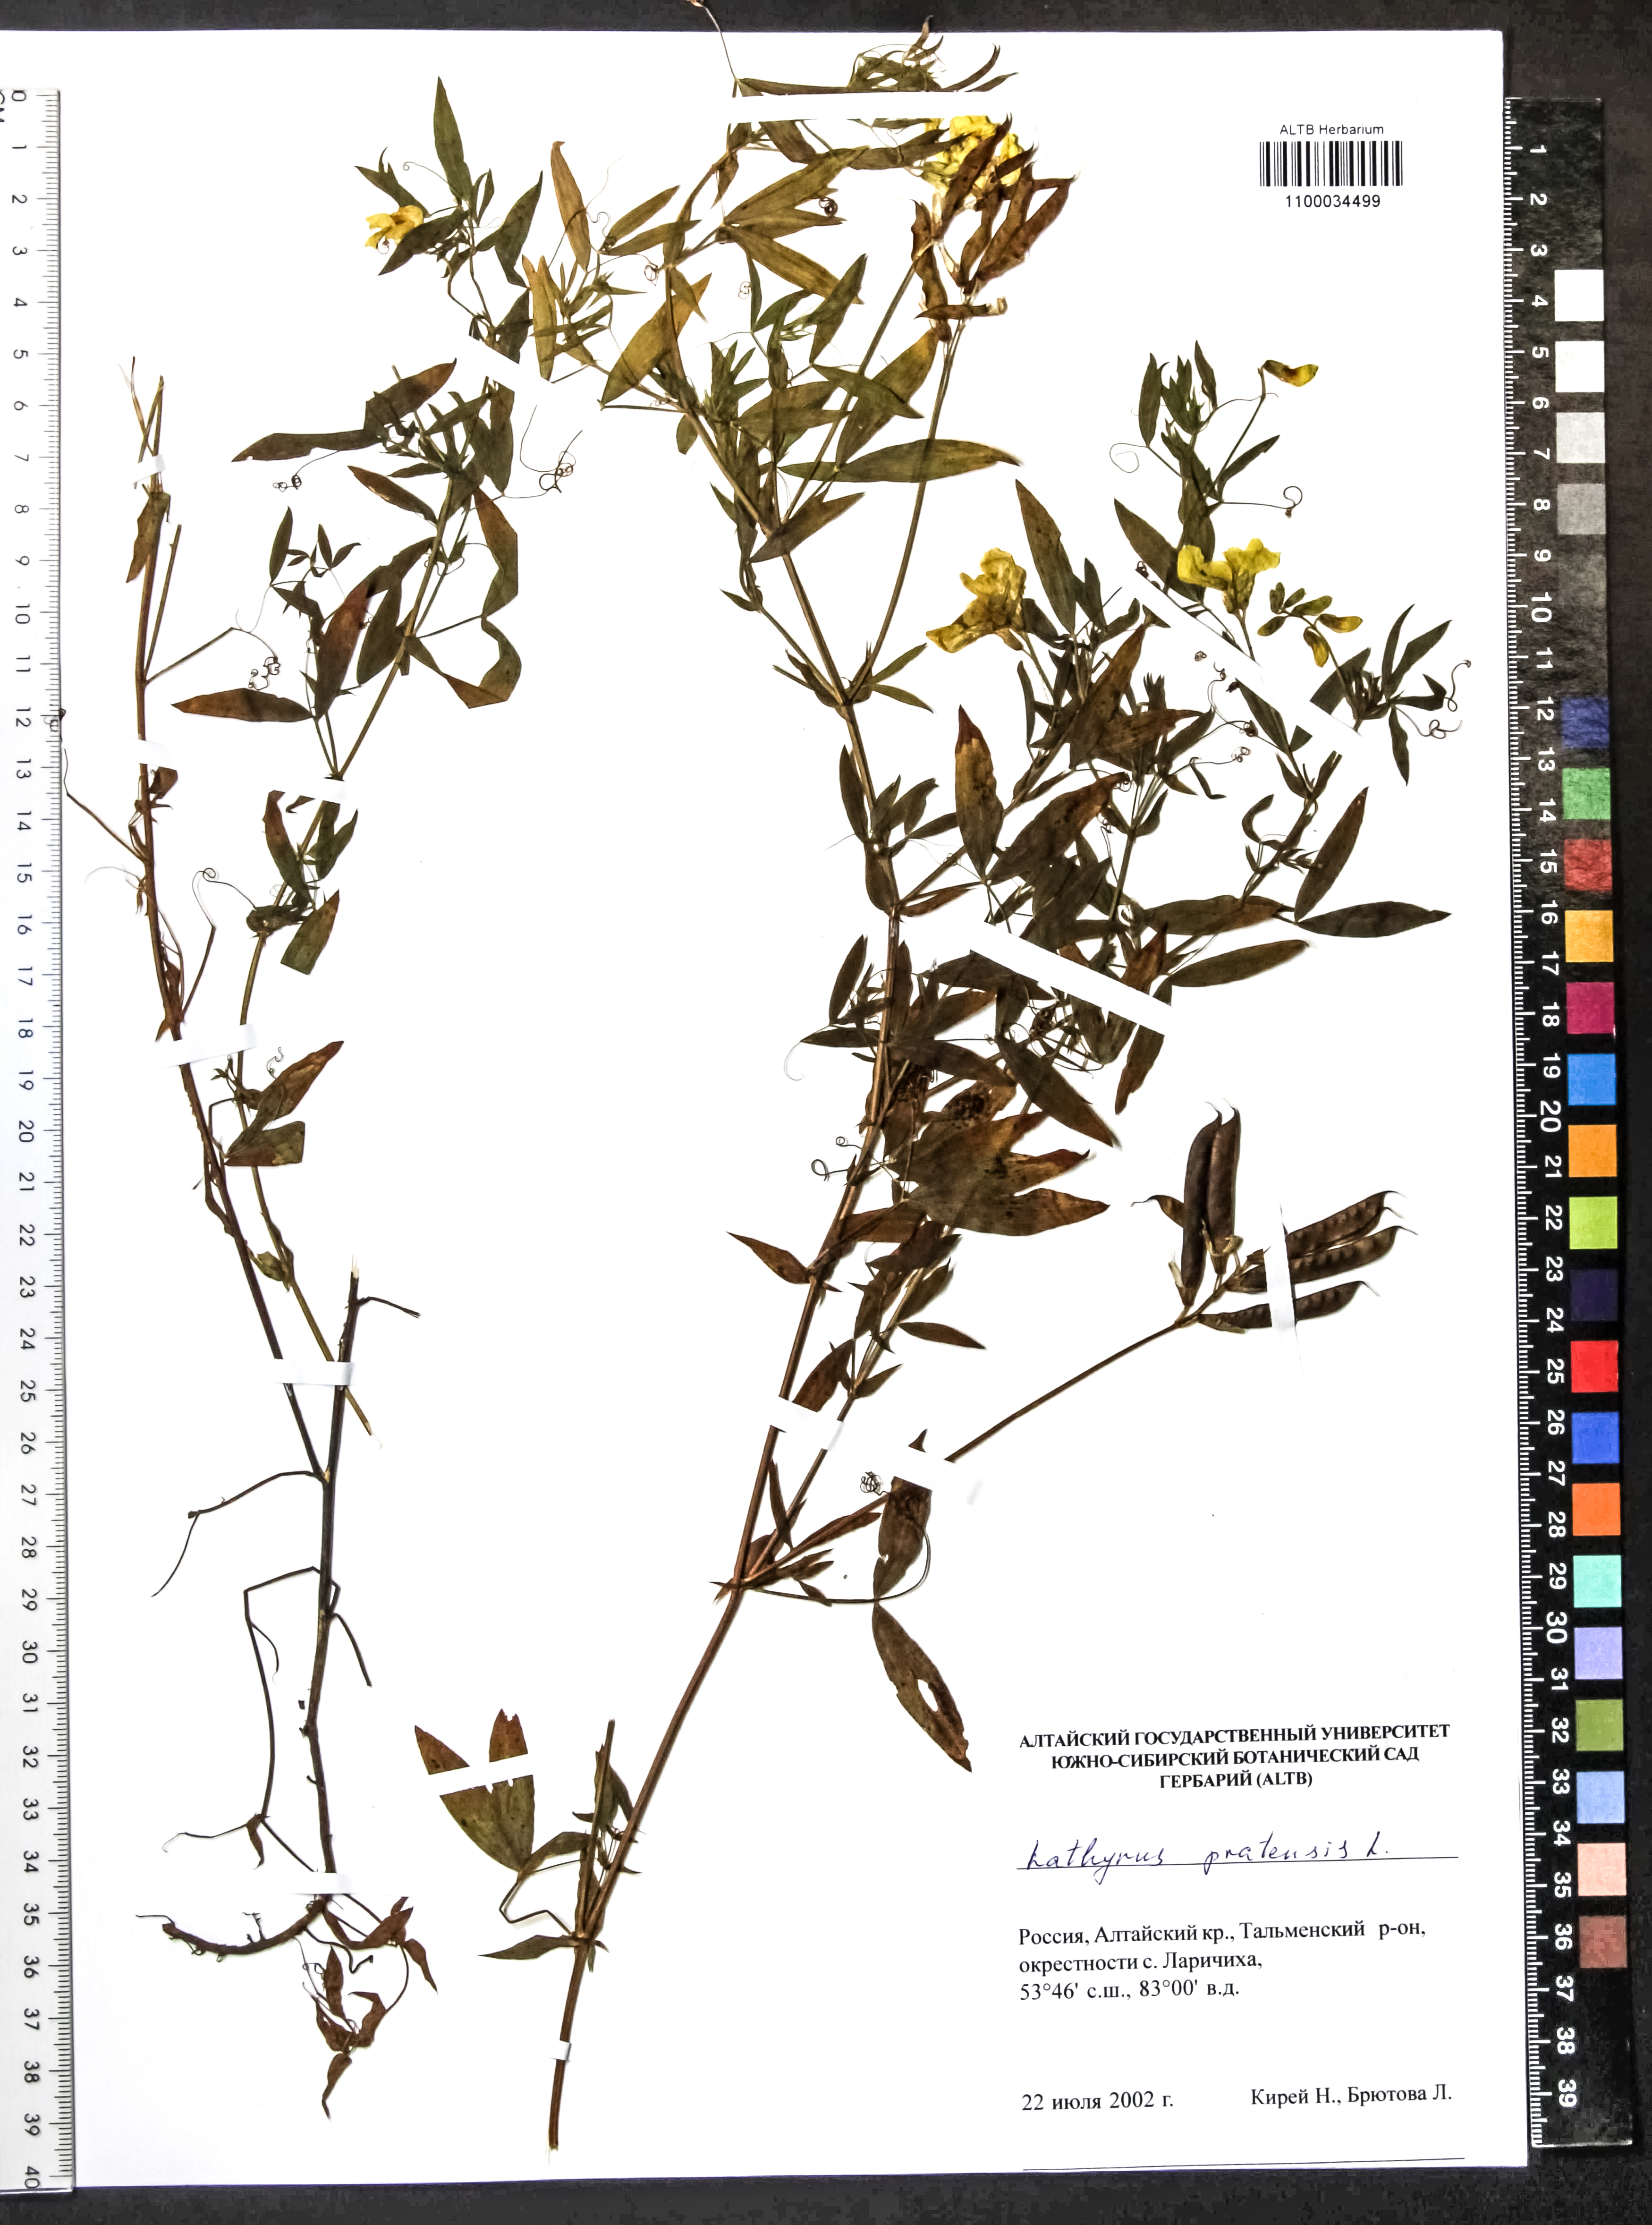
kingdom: Plantae
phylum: Tracheophyta
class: Magnoliopsida
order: Fabales
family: Fabaceae
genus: Lathyrus
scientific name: Lathyrus pratensis
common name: Meadow vetchling
